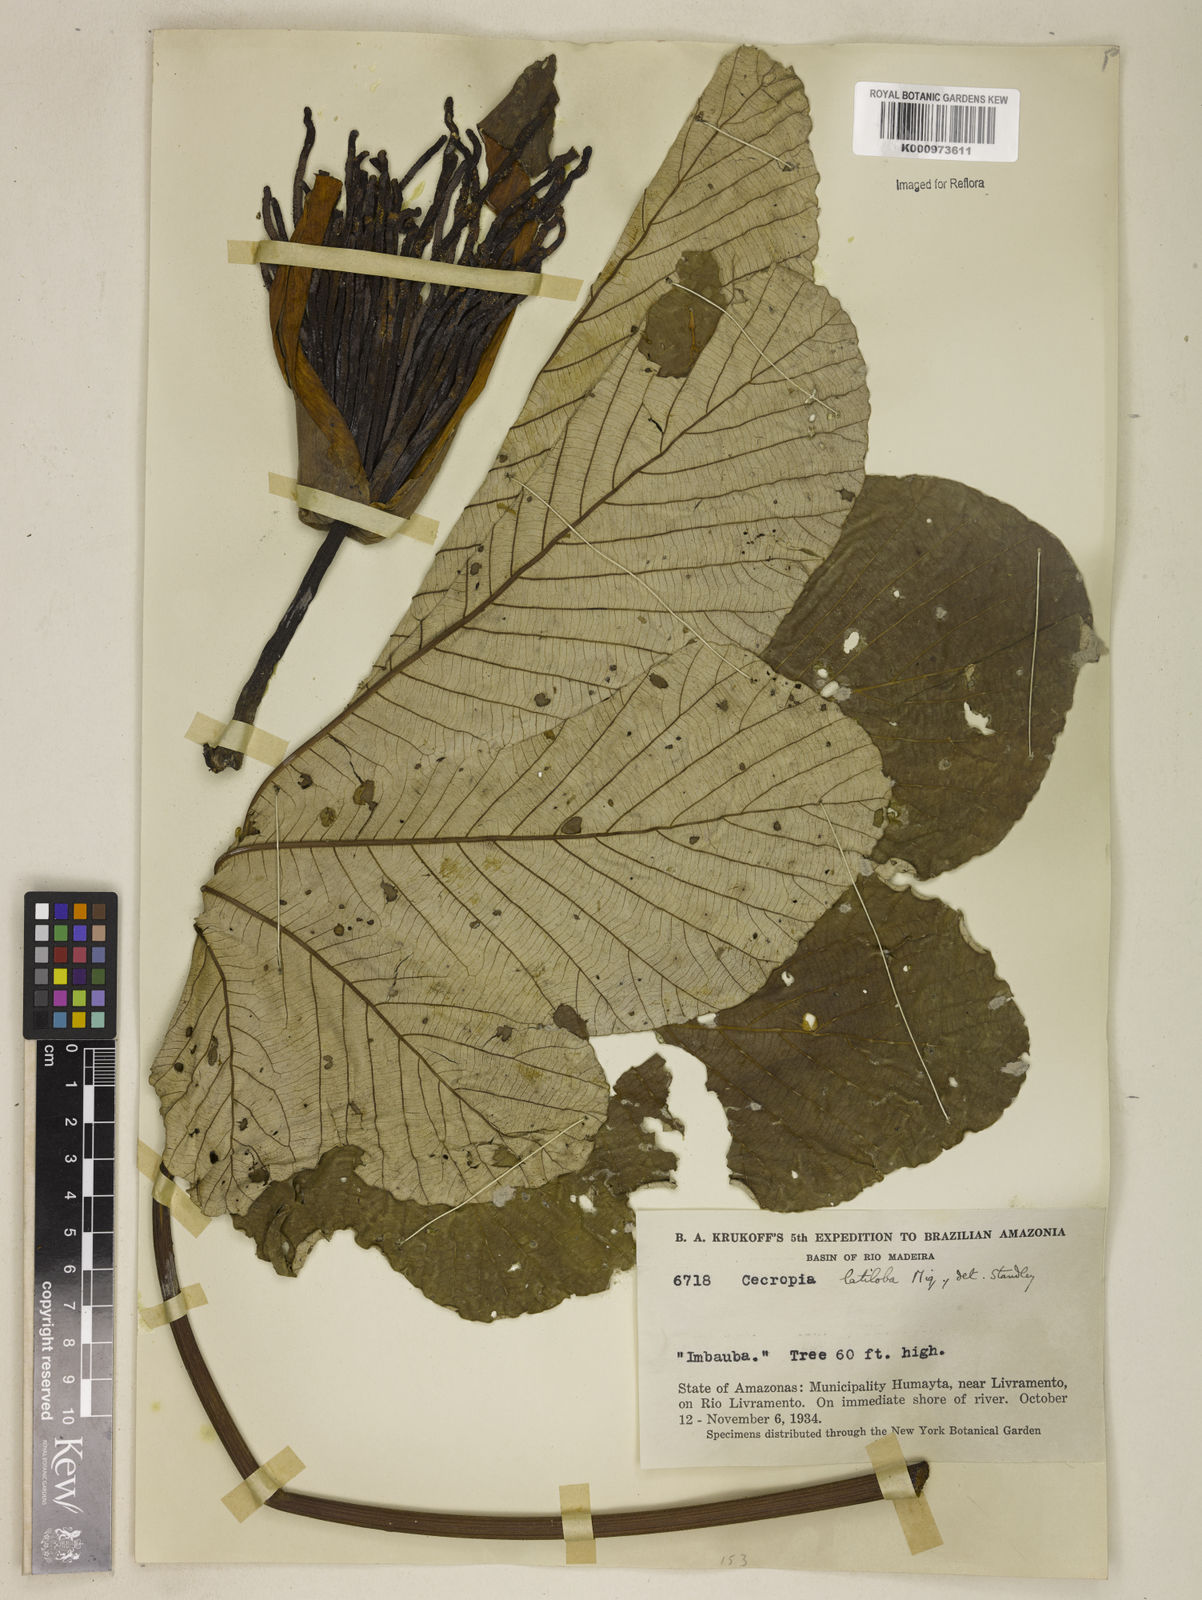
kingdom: Plantae
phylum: Tracheophyta
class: Magnoliopsida
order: Rosales
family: Urticaceae
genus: Cecropia
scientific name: Cecropia latiloba
